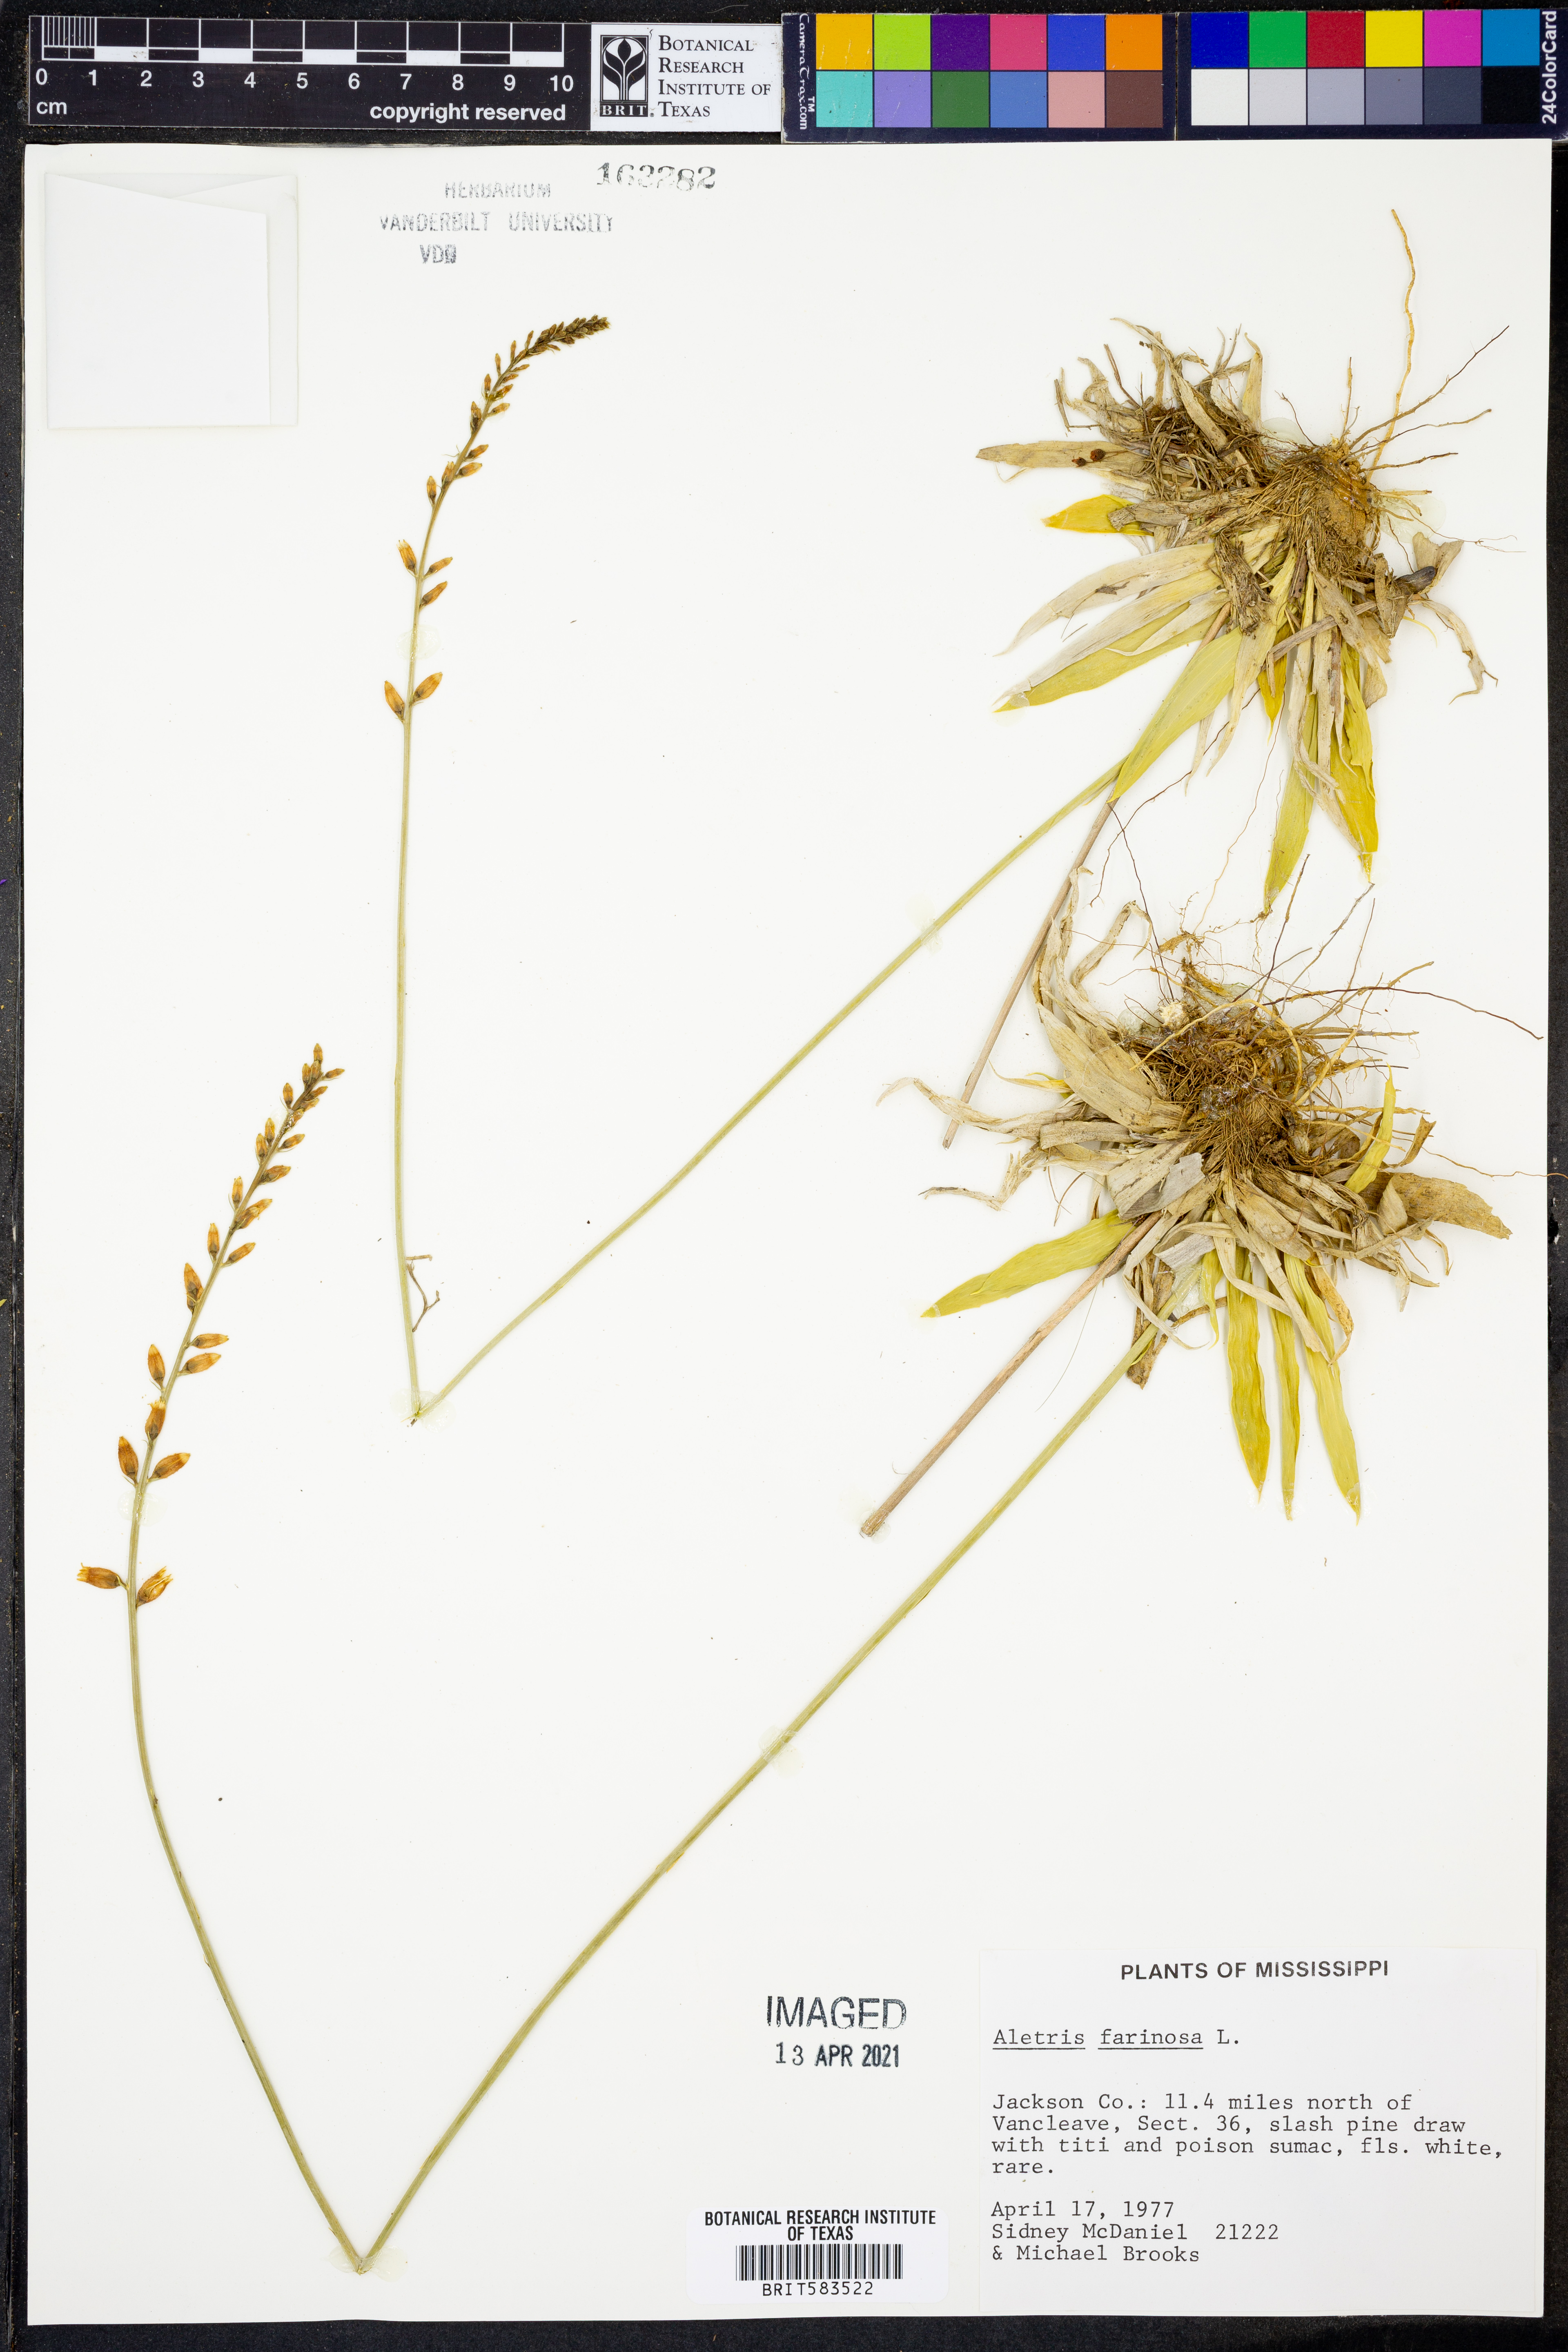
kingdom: Plantae
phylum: Tracheophyta
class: Liliopsida
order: Dioscoreales
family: Nartheciaceae
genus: Aletris
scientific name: Aletris farinosa
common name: Colicroot
